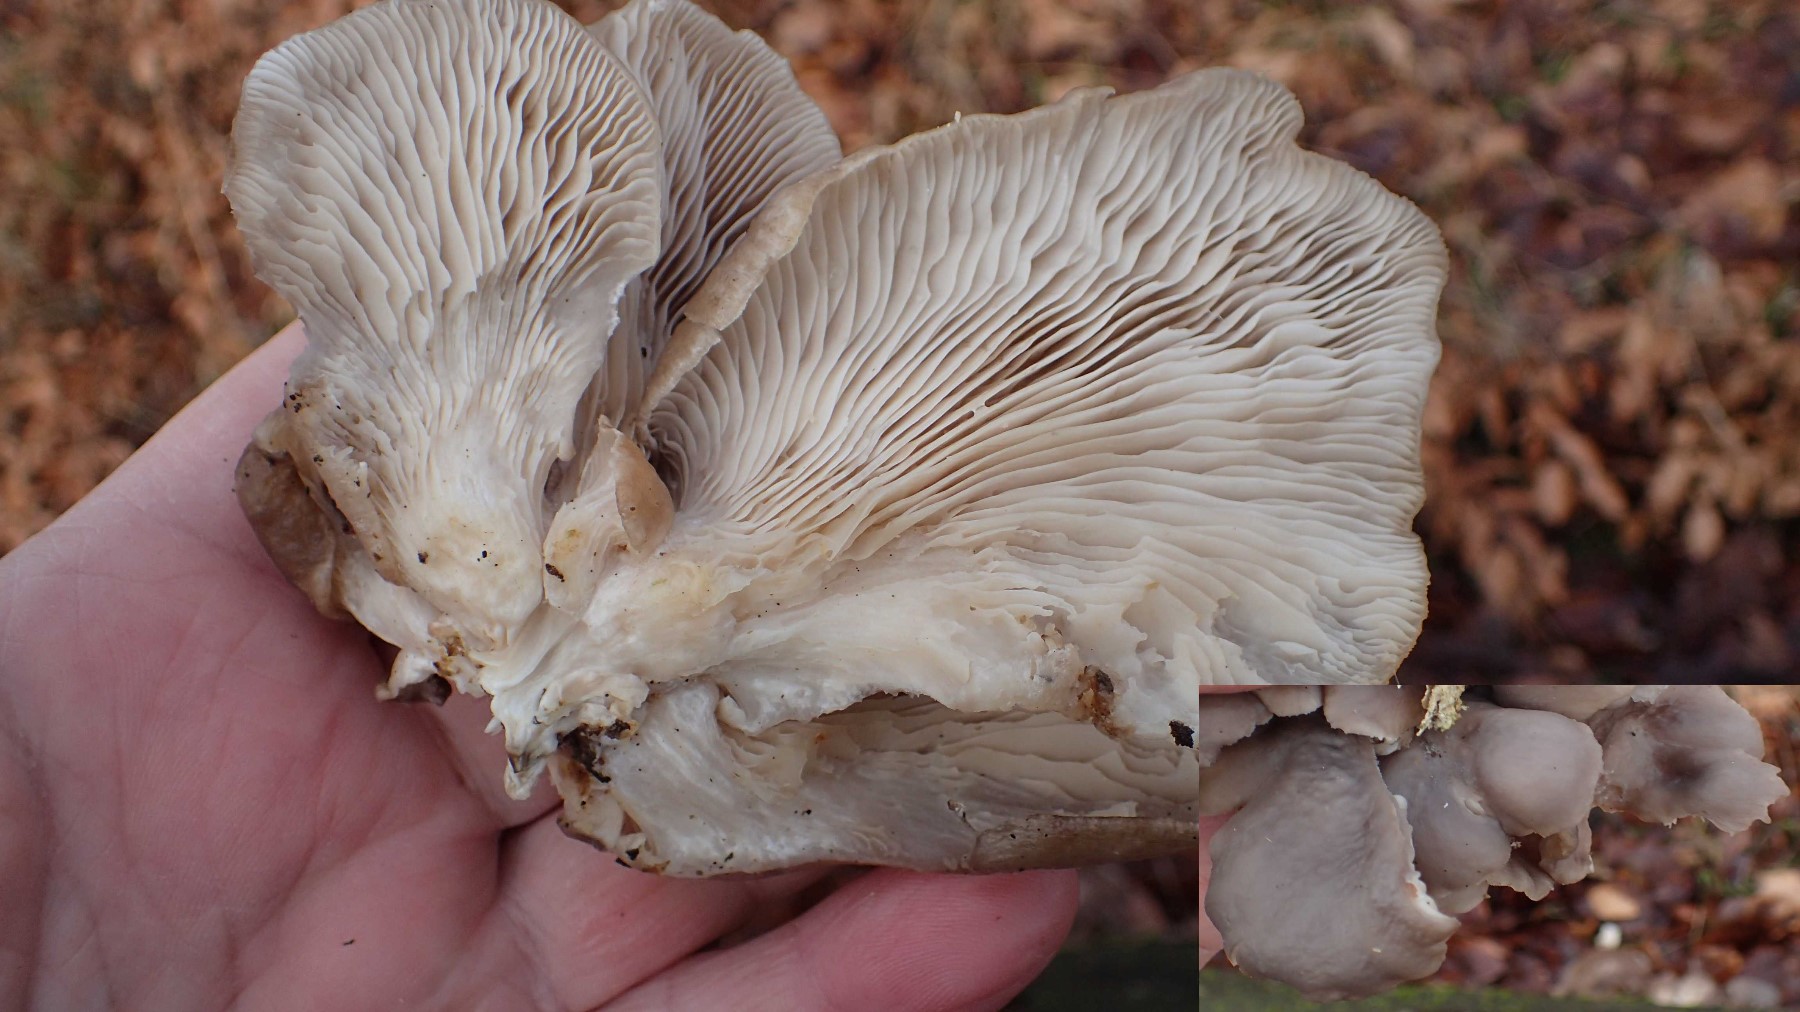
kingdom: Fungi
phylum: Basidiomycota
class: Agaricomycetes
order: Agaricales
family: Pleurotaceae
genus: Pleurotus
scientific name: Pleurotus ostreatus
